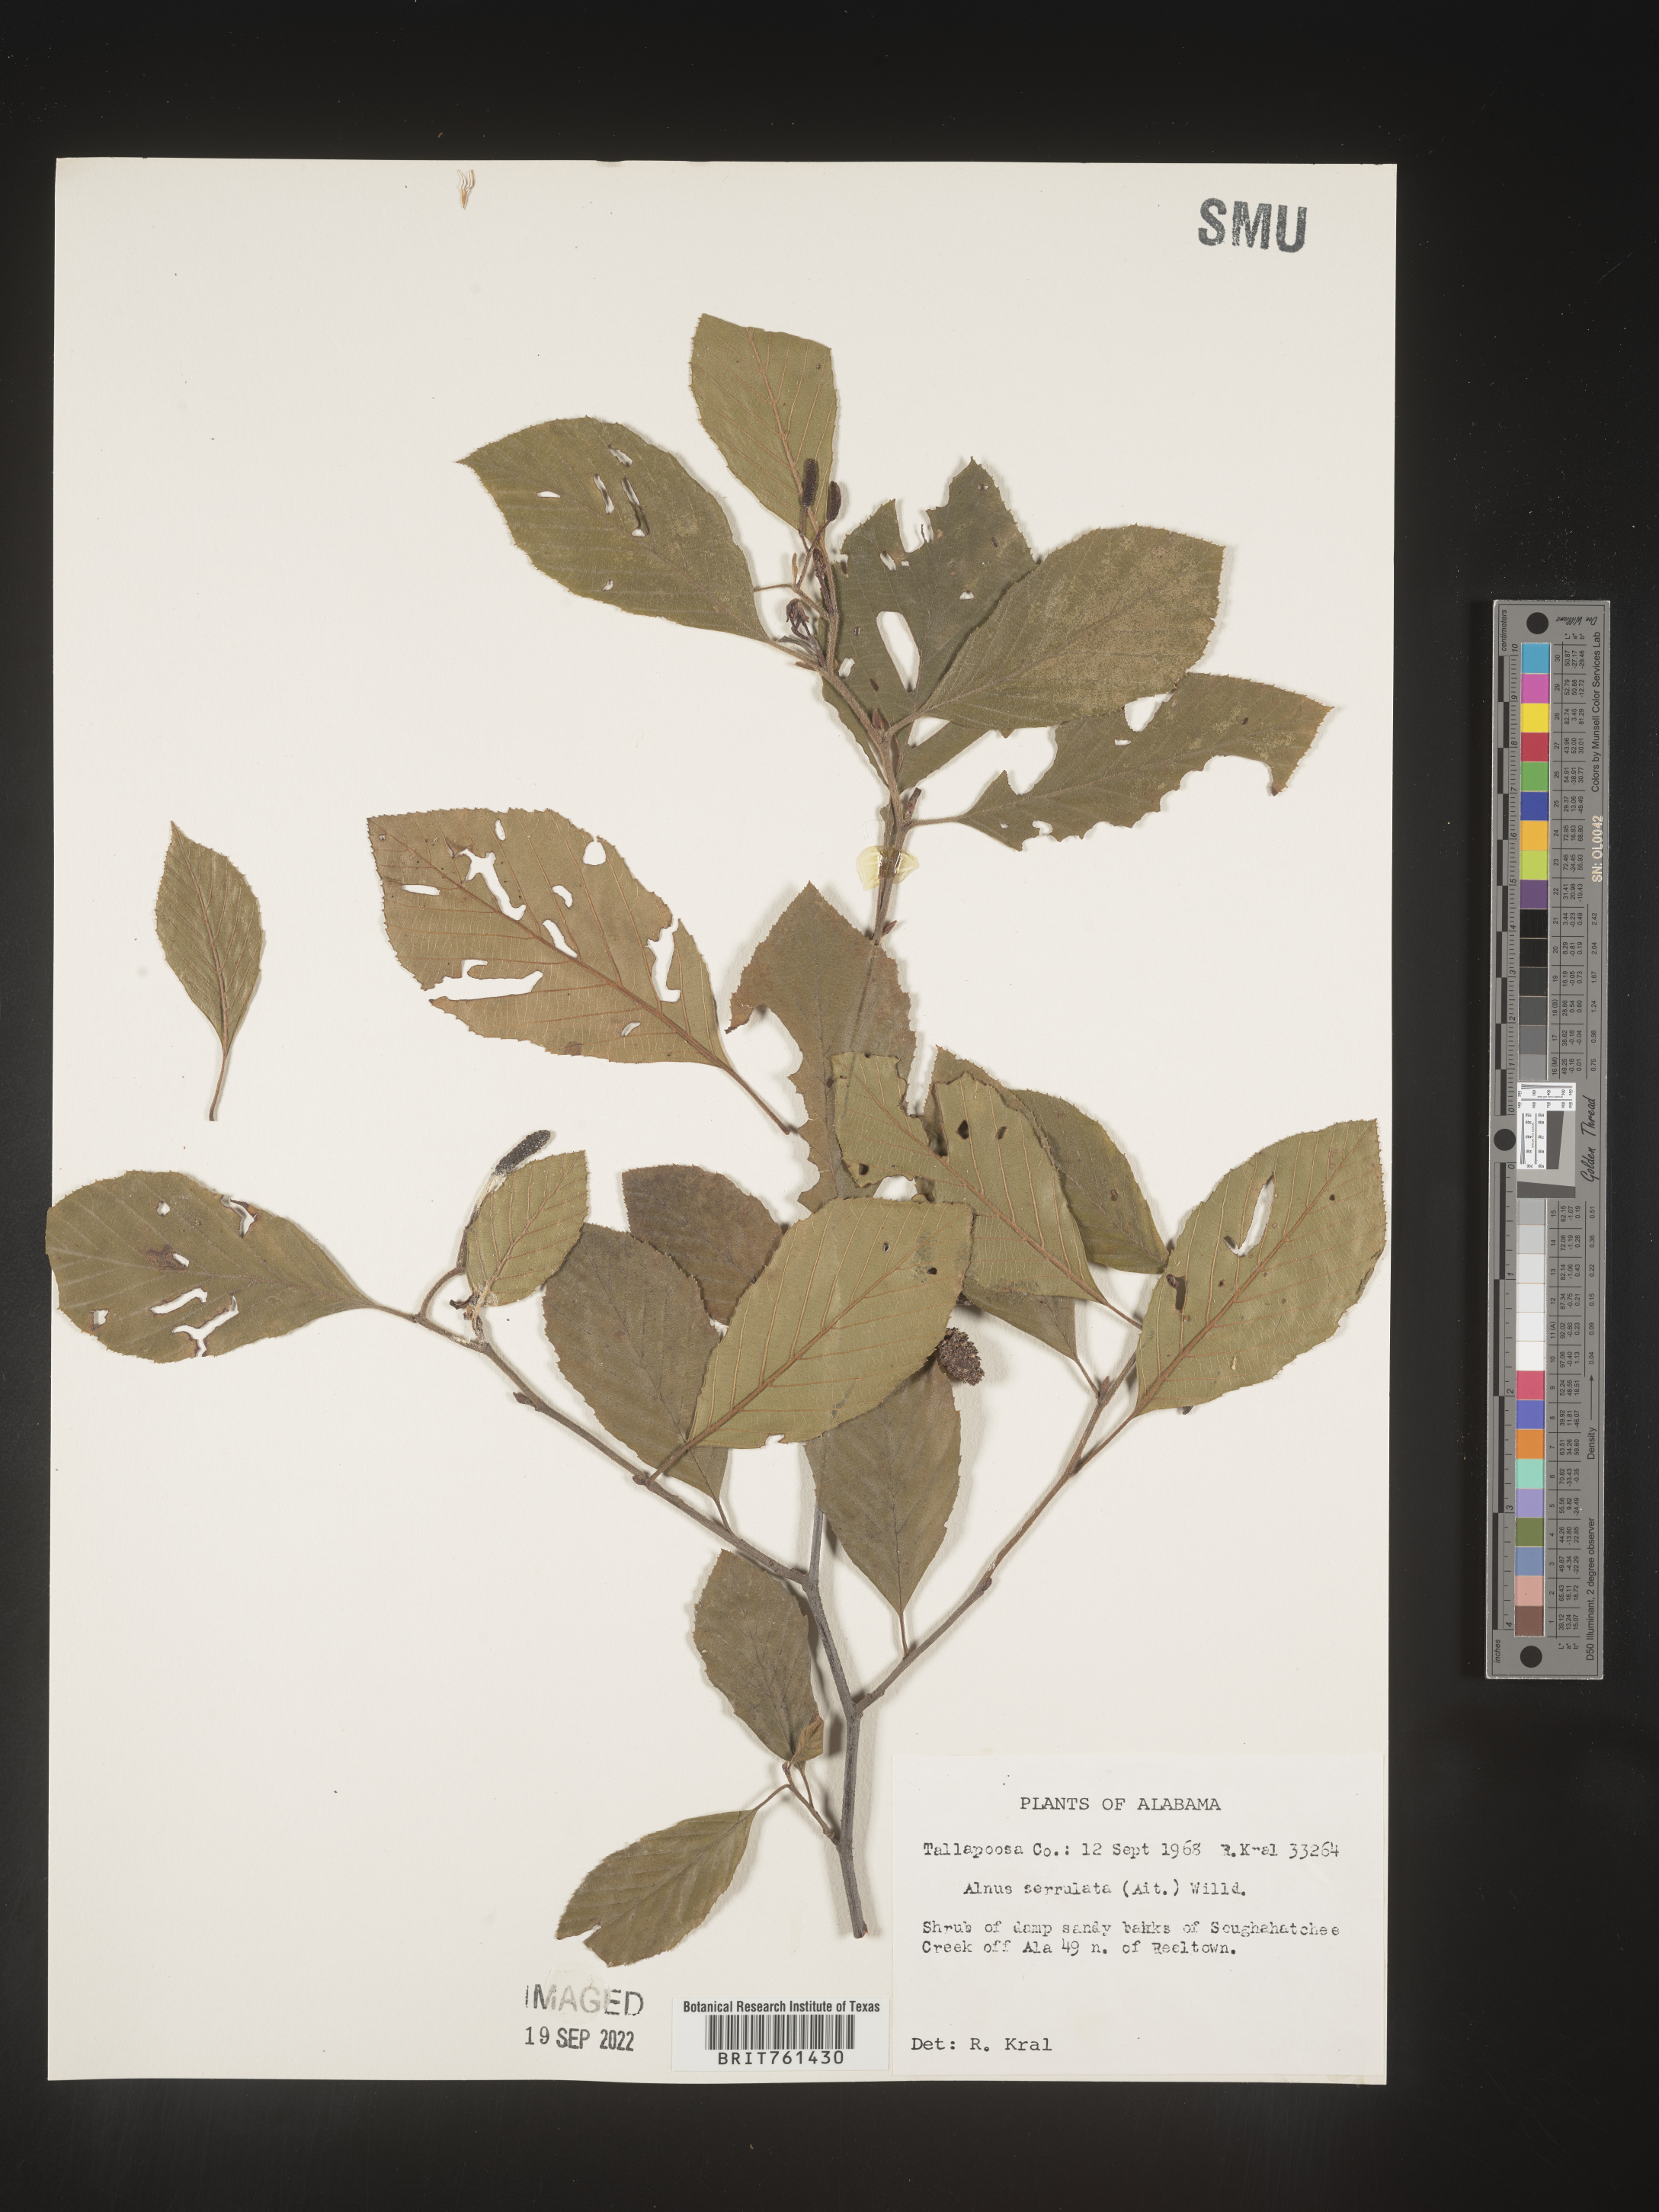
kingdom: Plantae
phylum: Tracheophyta
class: Magnoliopsida
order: Fagales
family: Betulaceae
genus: Alnus
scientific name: Alnus serrulata
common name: Hazel alder
